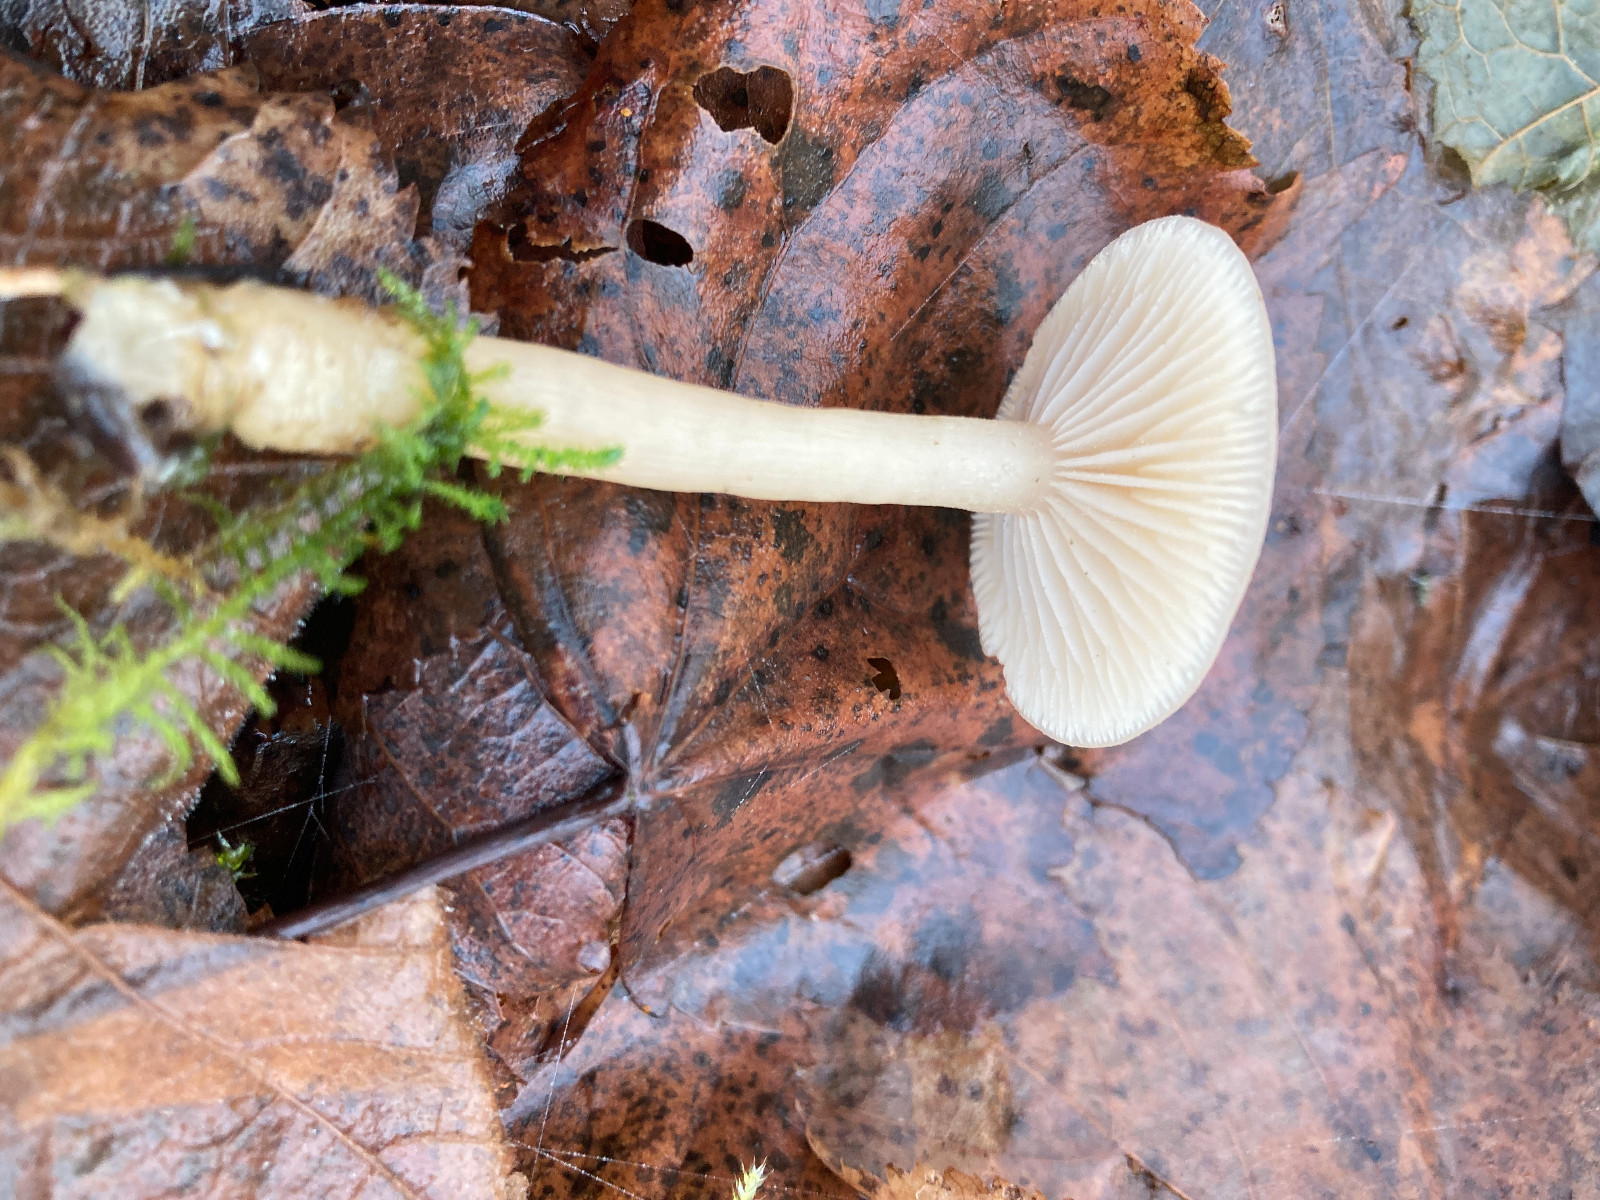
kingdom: Fungi
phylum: Basidiomycota
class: Agaricomycetes
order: Agaricales
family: Tricholomataceae
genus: Clitocybe
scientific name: Clitocybe fragrans
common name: vellugtende tragthat
